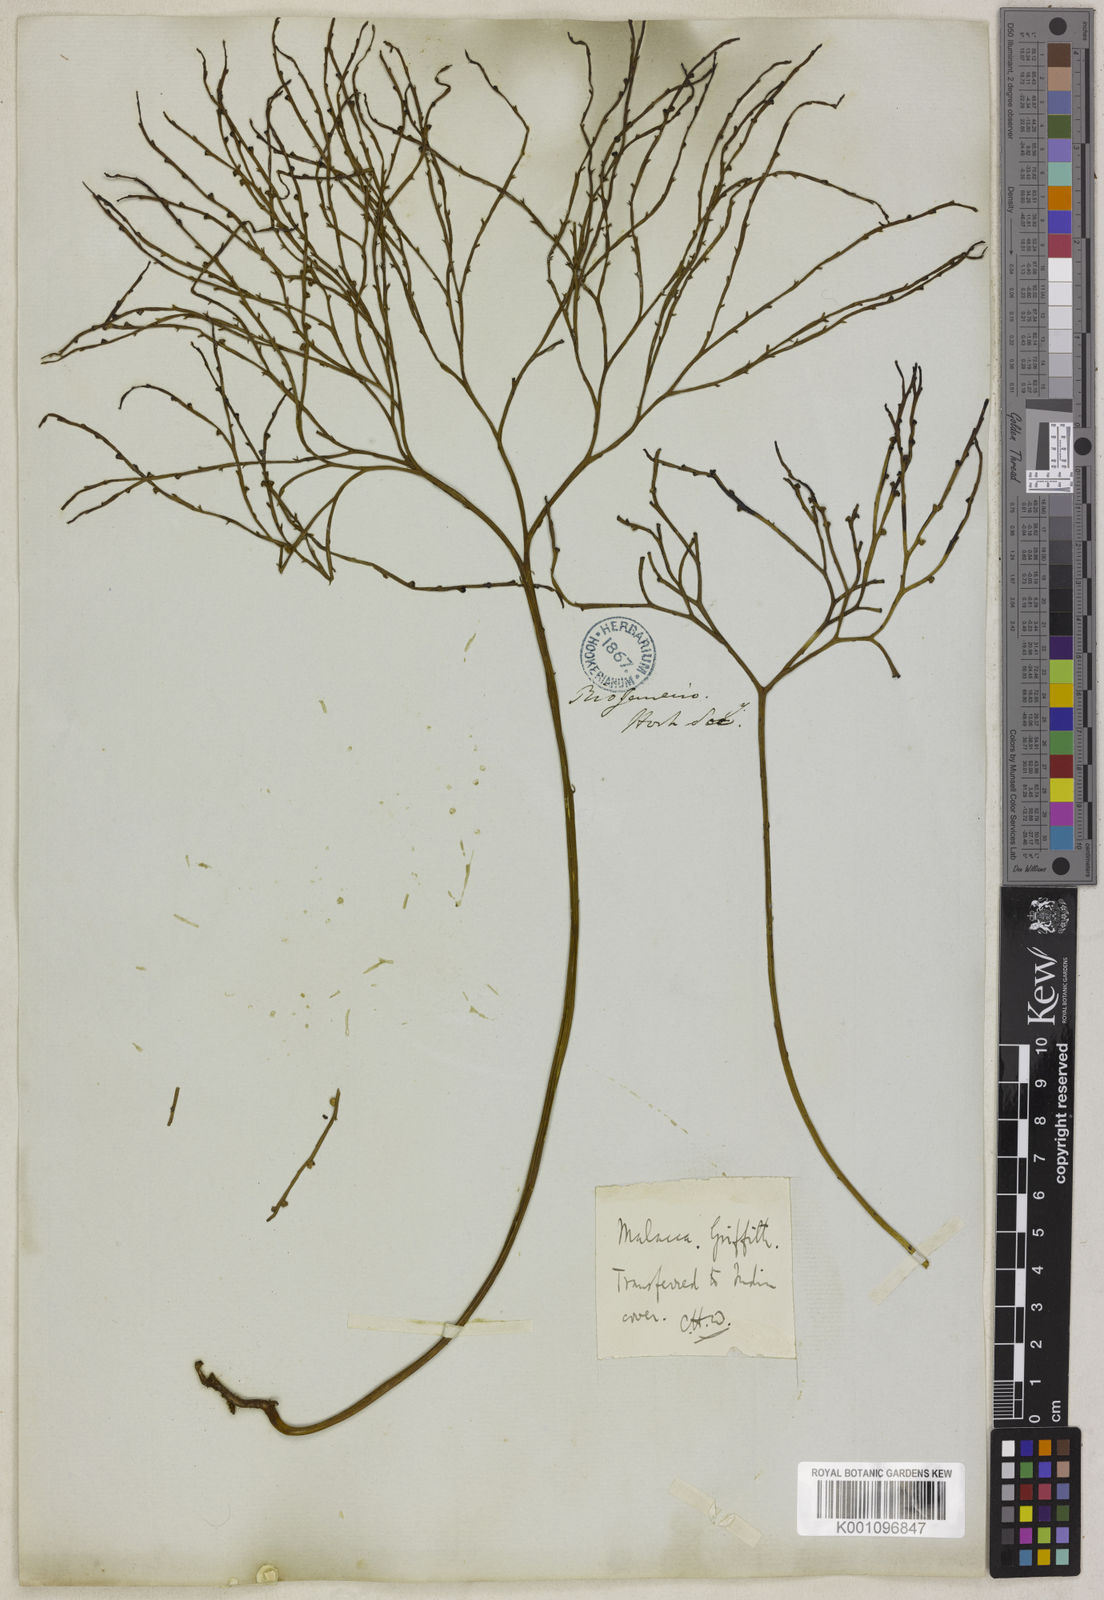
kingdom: Plantae
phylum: Tracheophyta
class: Polypodiopsida
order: Psilotales
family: Psilotaceae
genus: Psilotum
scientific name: Psilotum nudum
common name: Skeleton fork fern
